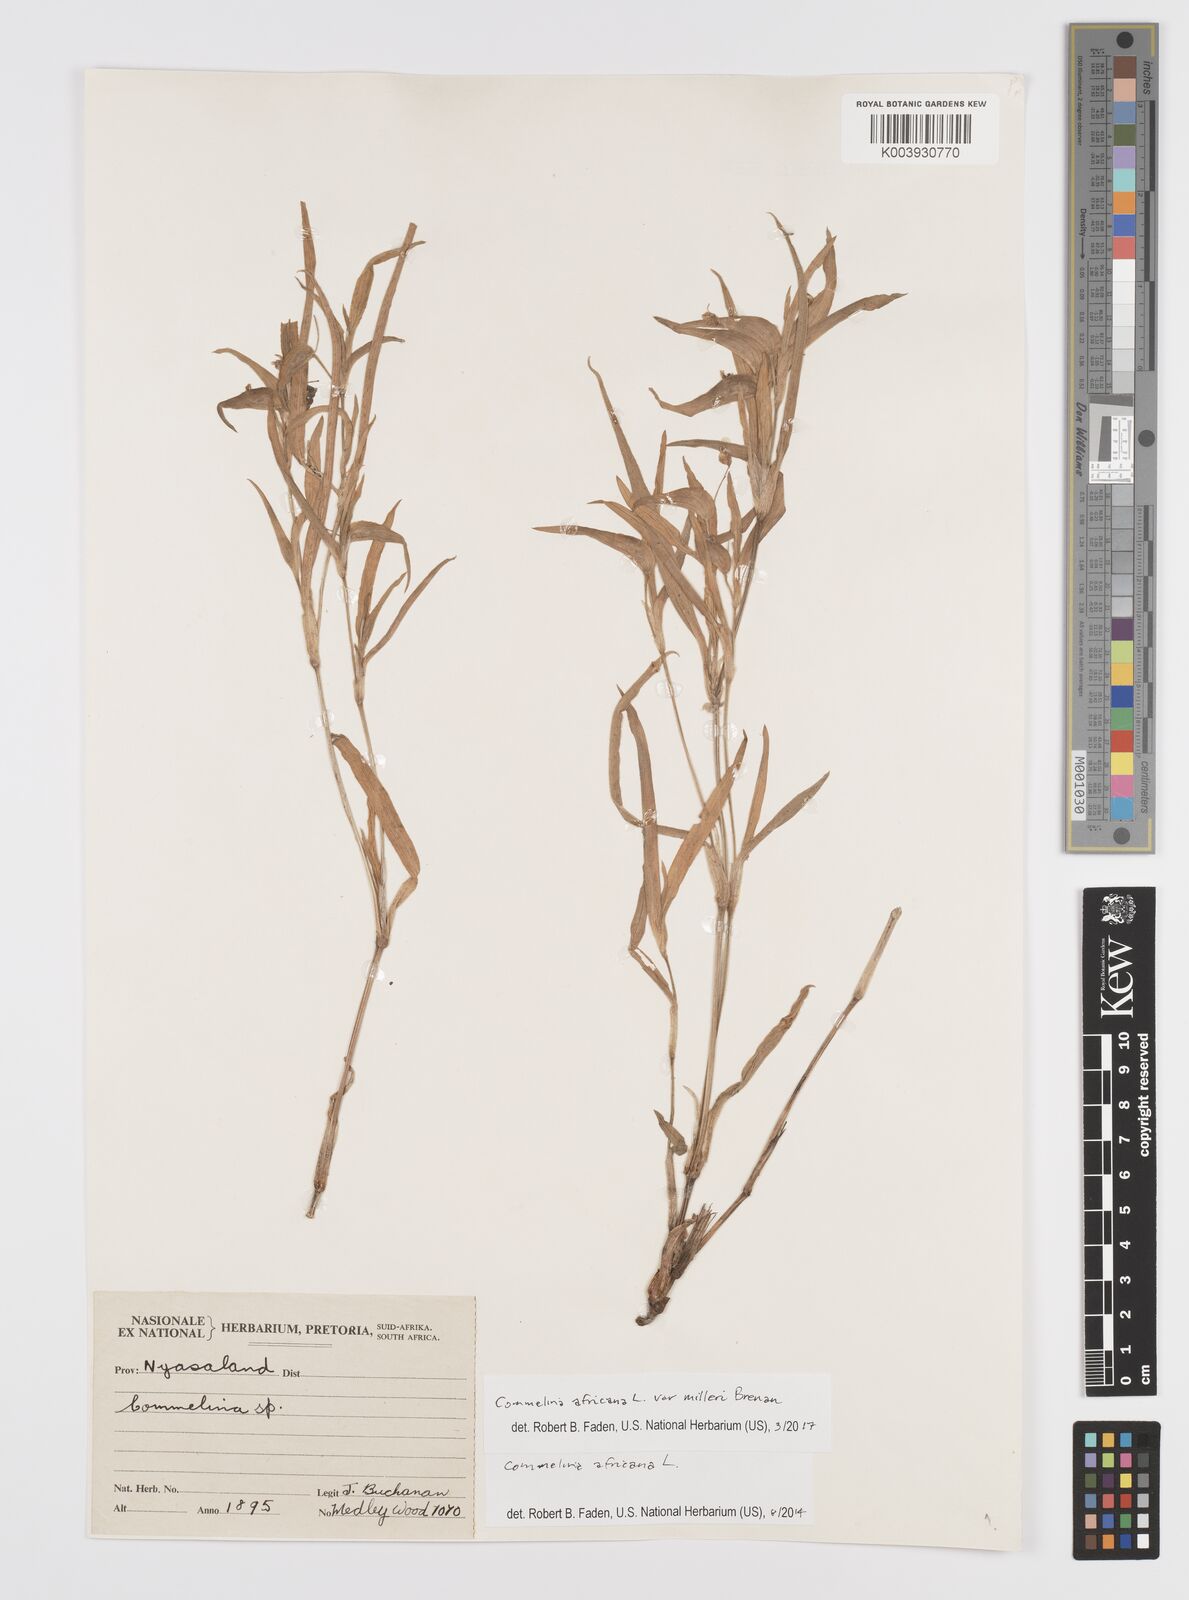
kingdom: Plantae
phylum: Tracheophyta
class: Liliopsida
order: Commelinales
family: Commelinaceae
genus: Commelina
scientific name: Commelina africana
